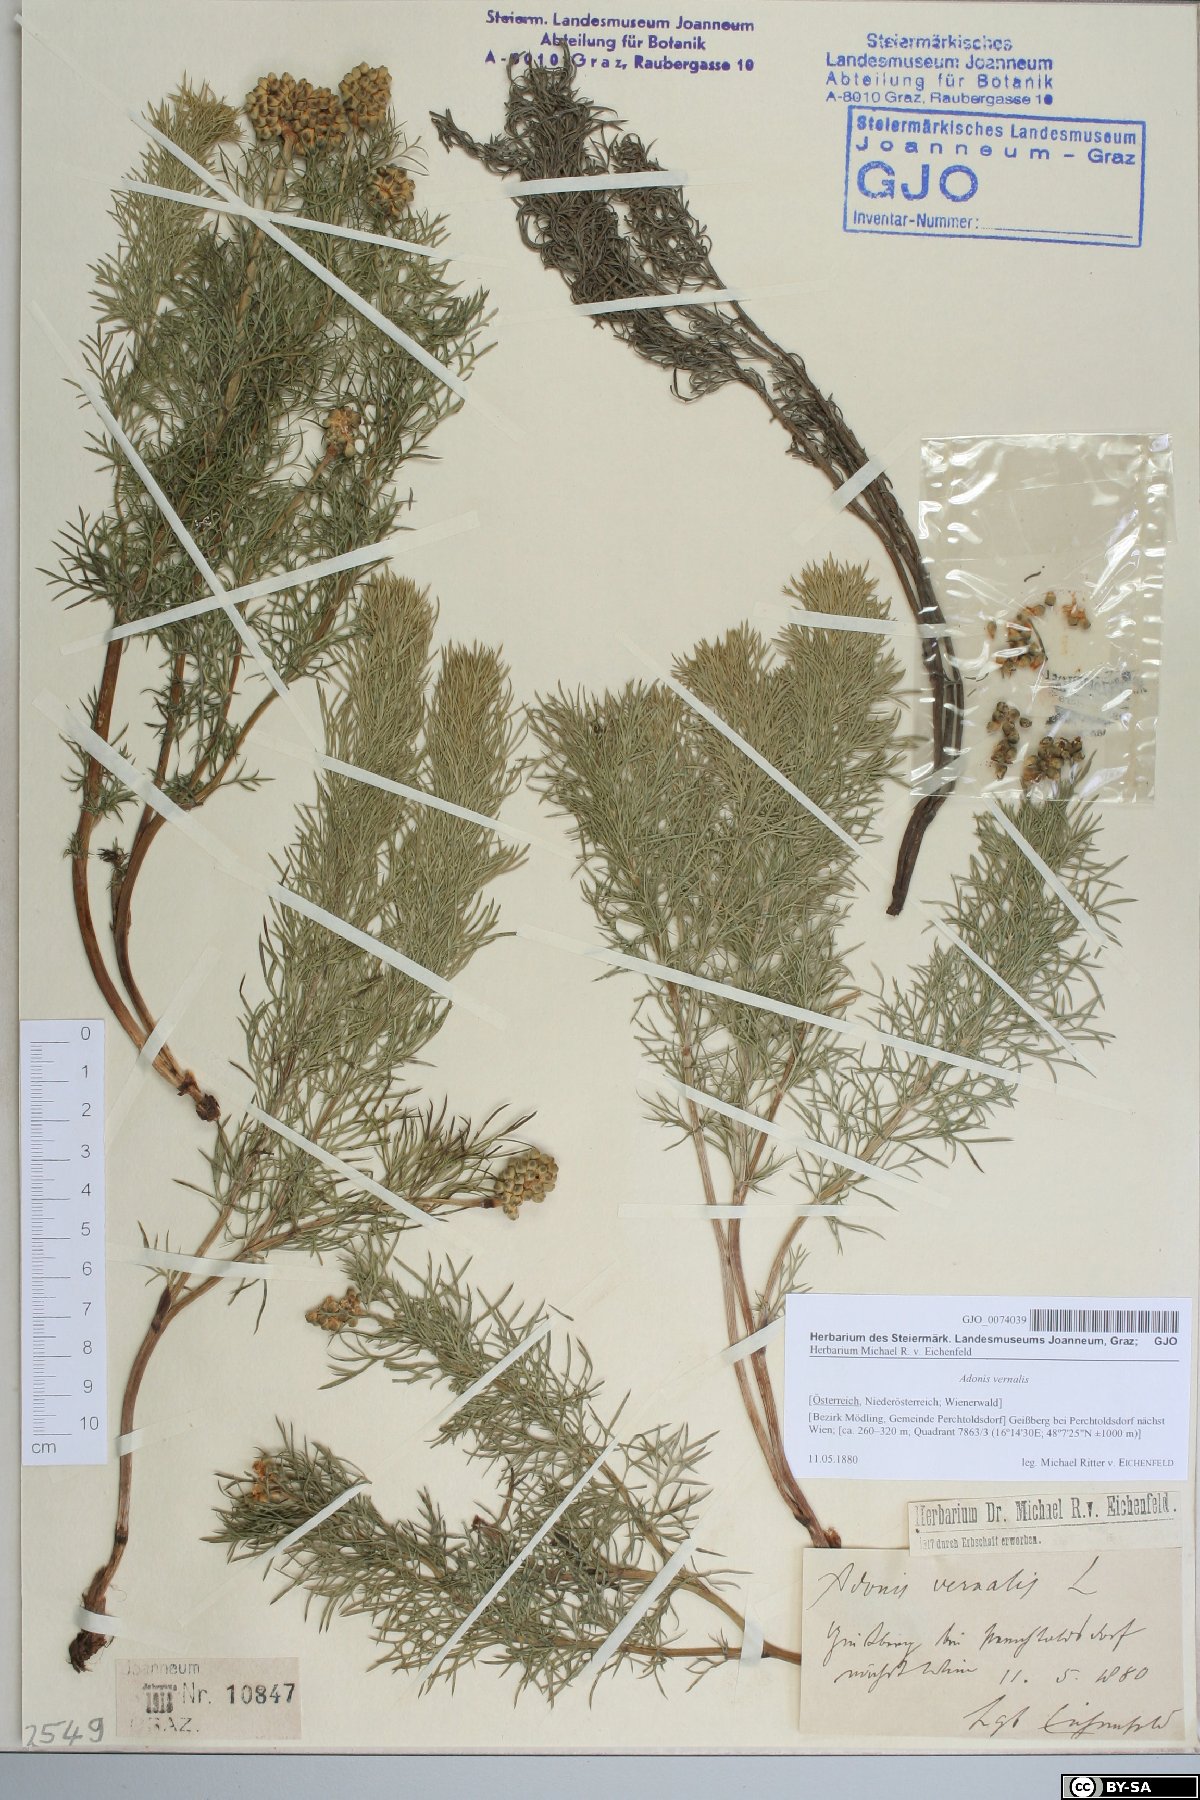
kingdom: Plantae
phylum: Tracheophyta
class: Magnoliopsida
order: Ranunculales
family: Ranunculaceae
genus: Adonis
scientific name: Adonis vernalis
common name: Yellow pheasants-eye
